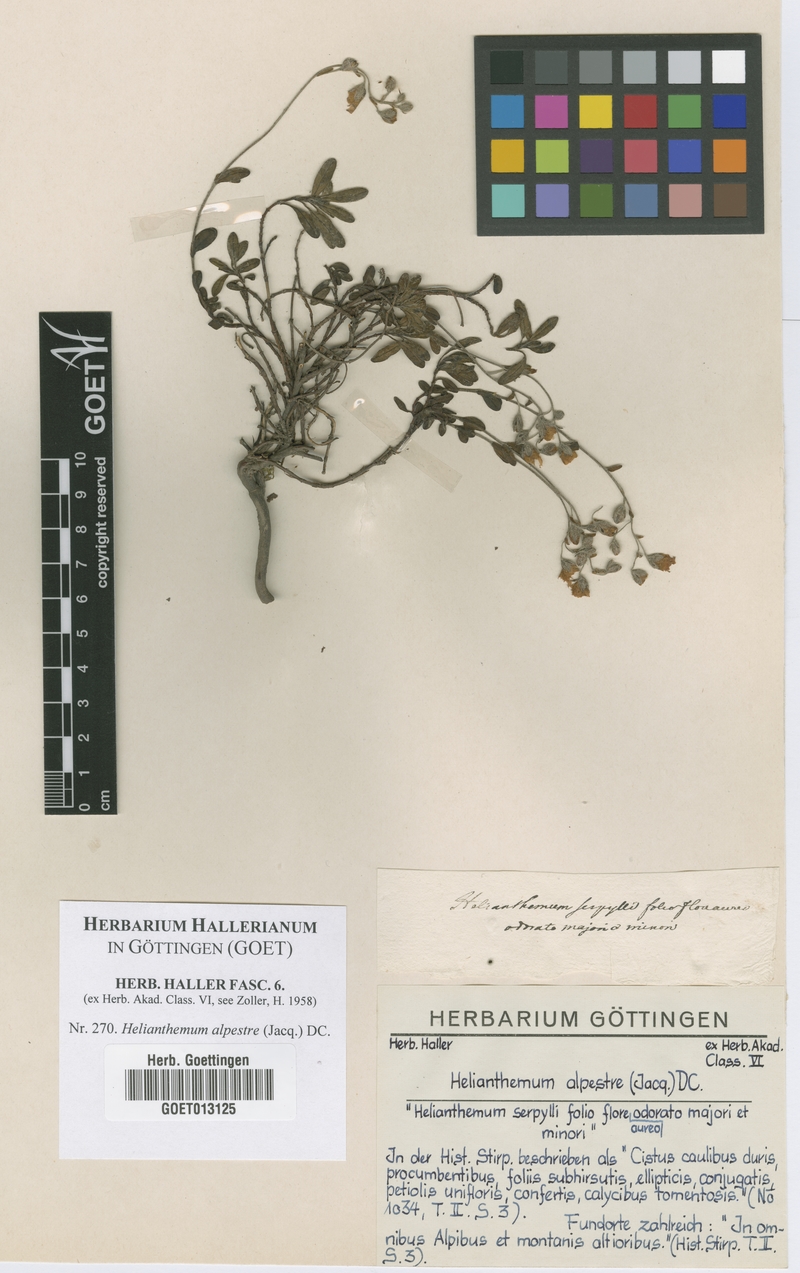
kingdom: Plantae
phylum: Tracheophyta
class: Magnoliopsida
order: Malvales
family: Cistaceae
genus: Helianthemum
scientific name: Helianthemum alpestre
